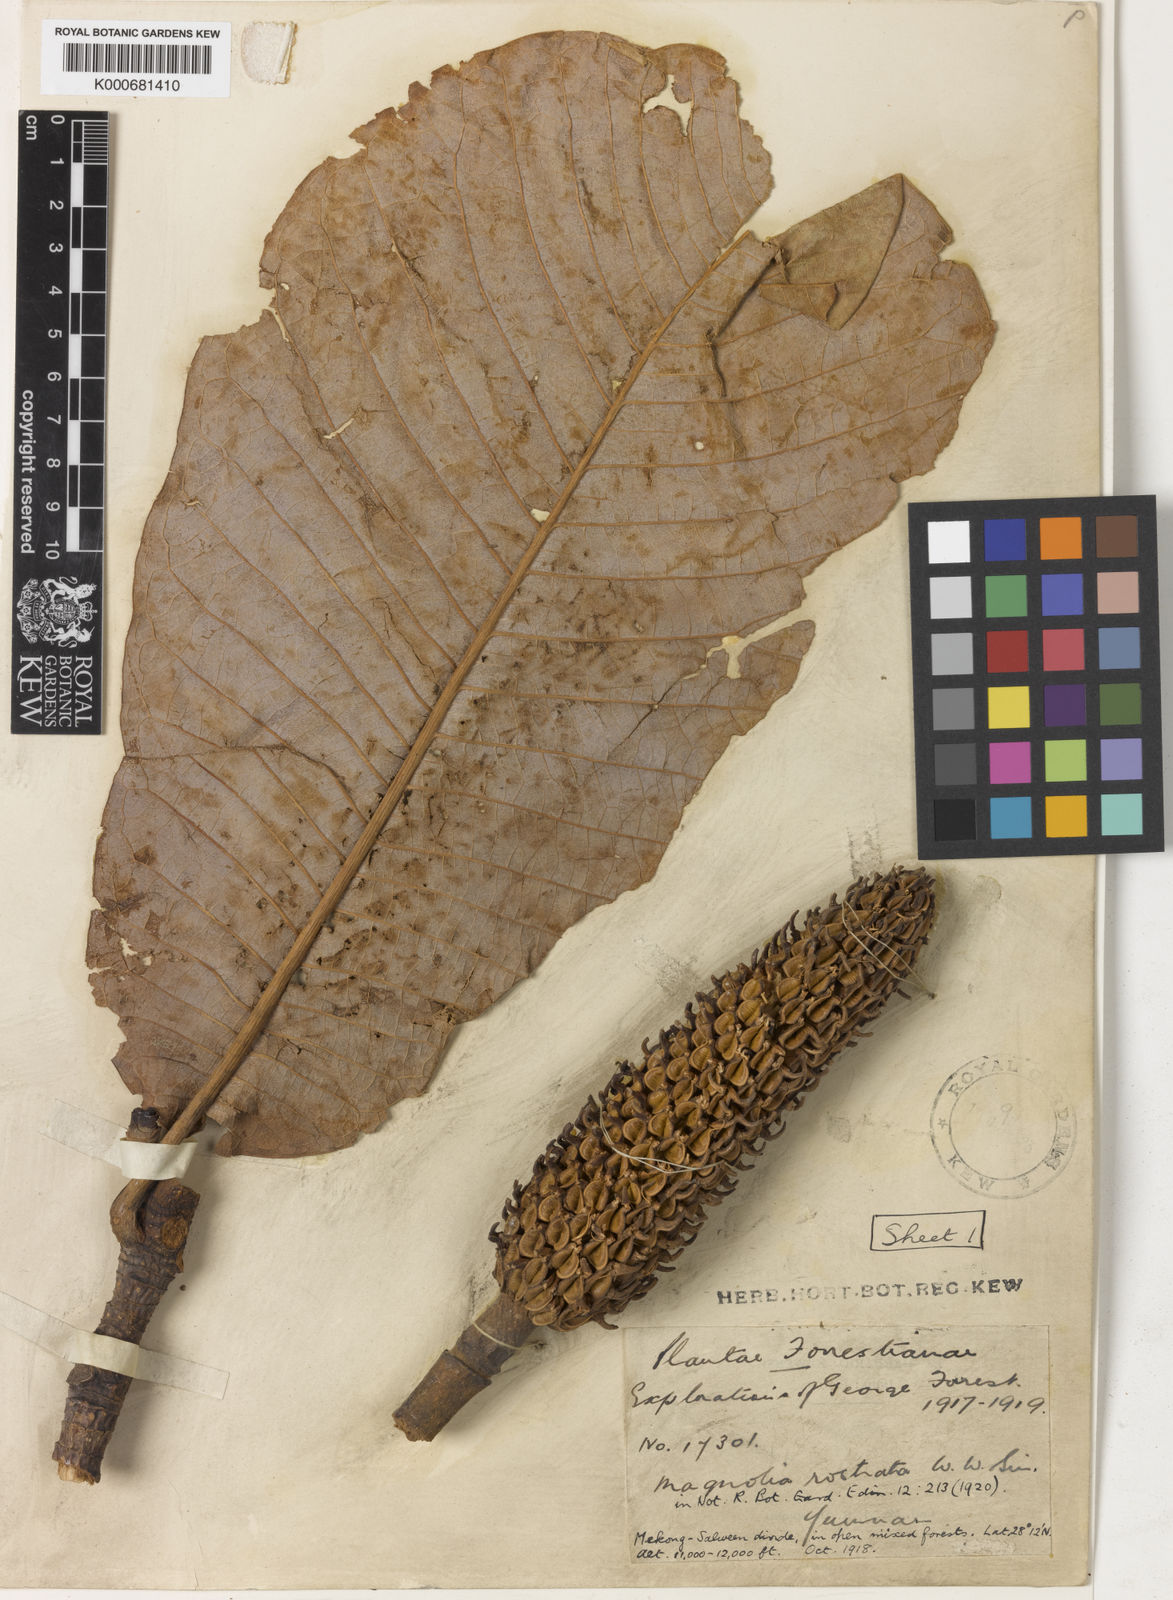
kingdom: Plantae
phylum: Tracheophyta
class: Magnoliopsida
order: Magnoliales
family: Magnoliaceae
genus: Magnolia
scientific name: Magnolia rostrata
